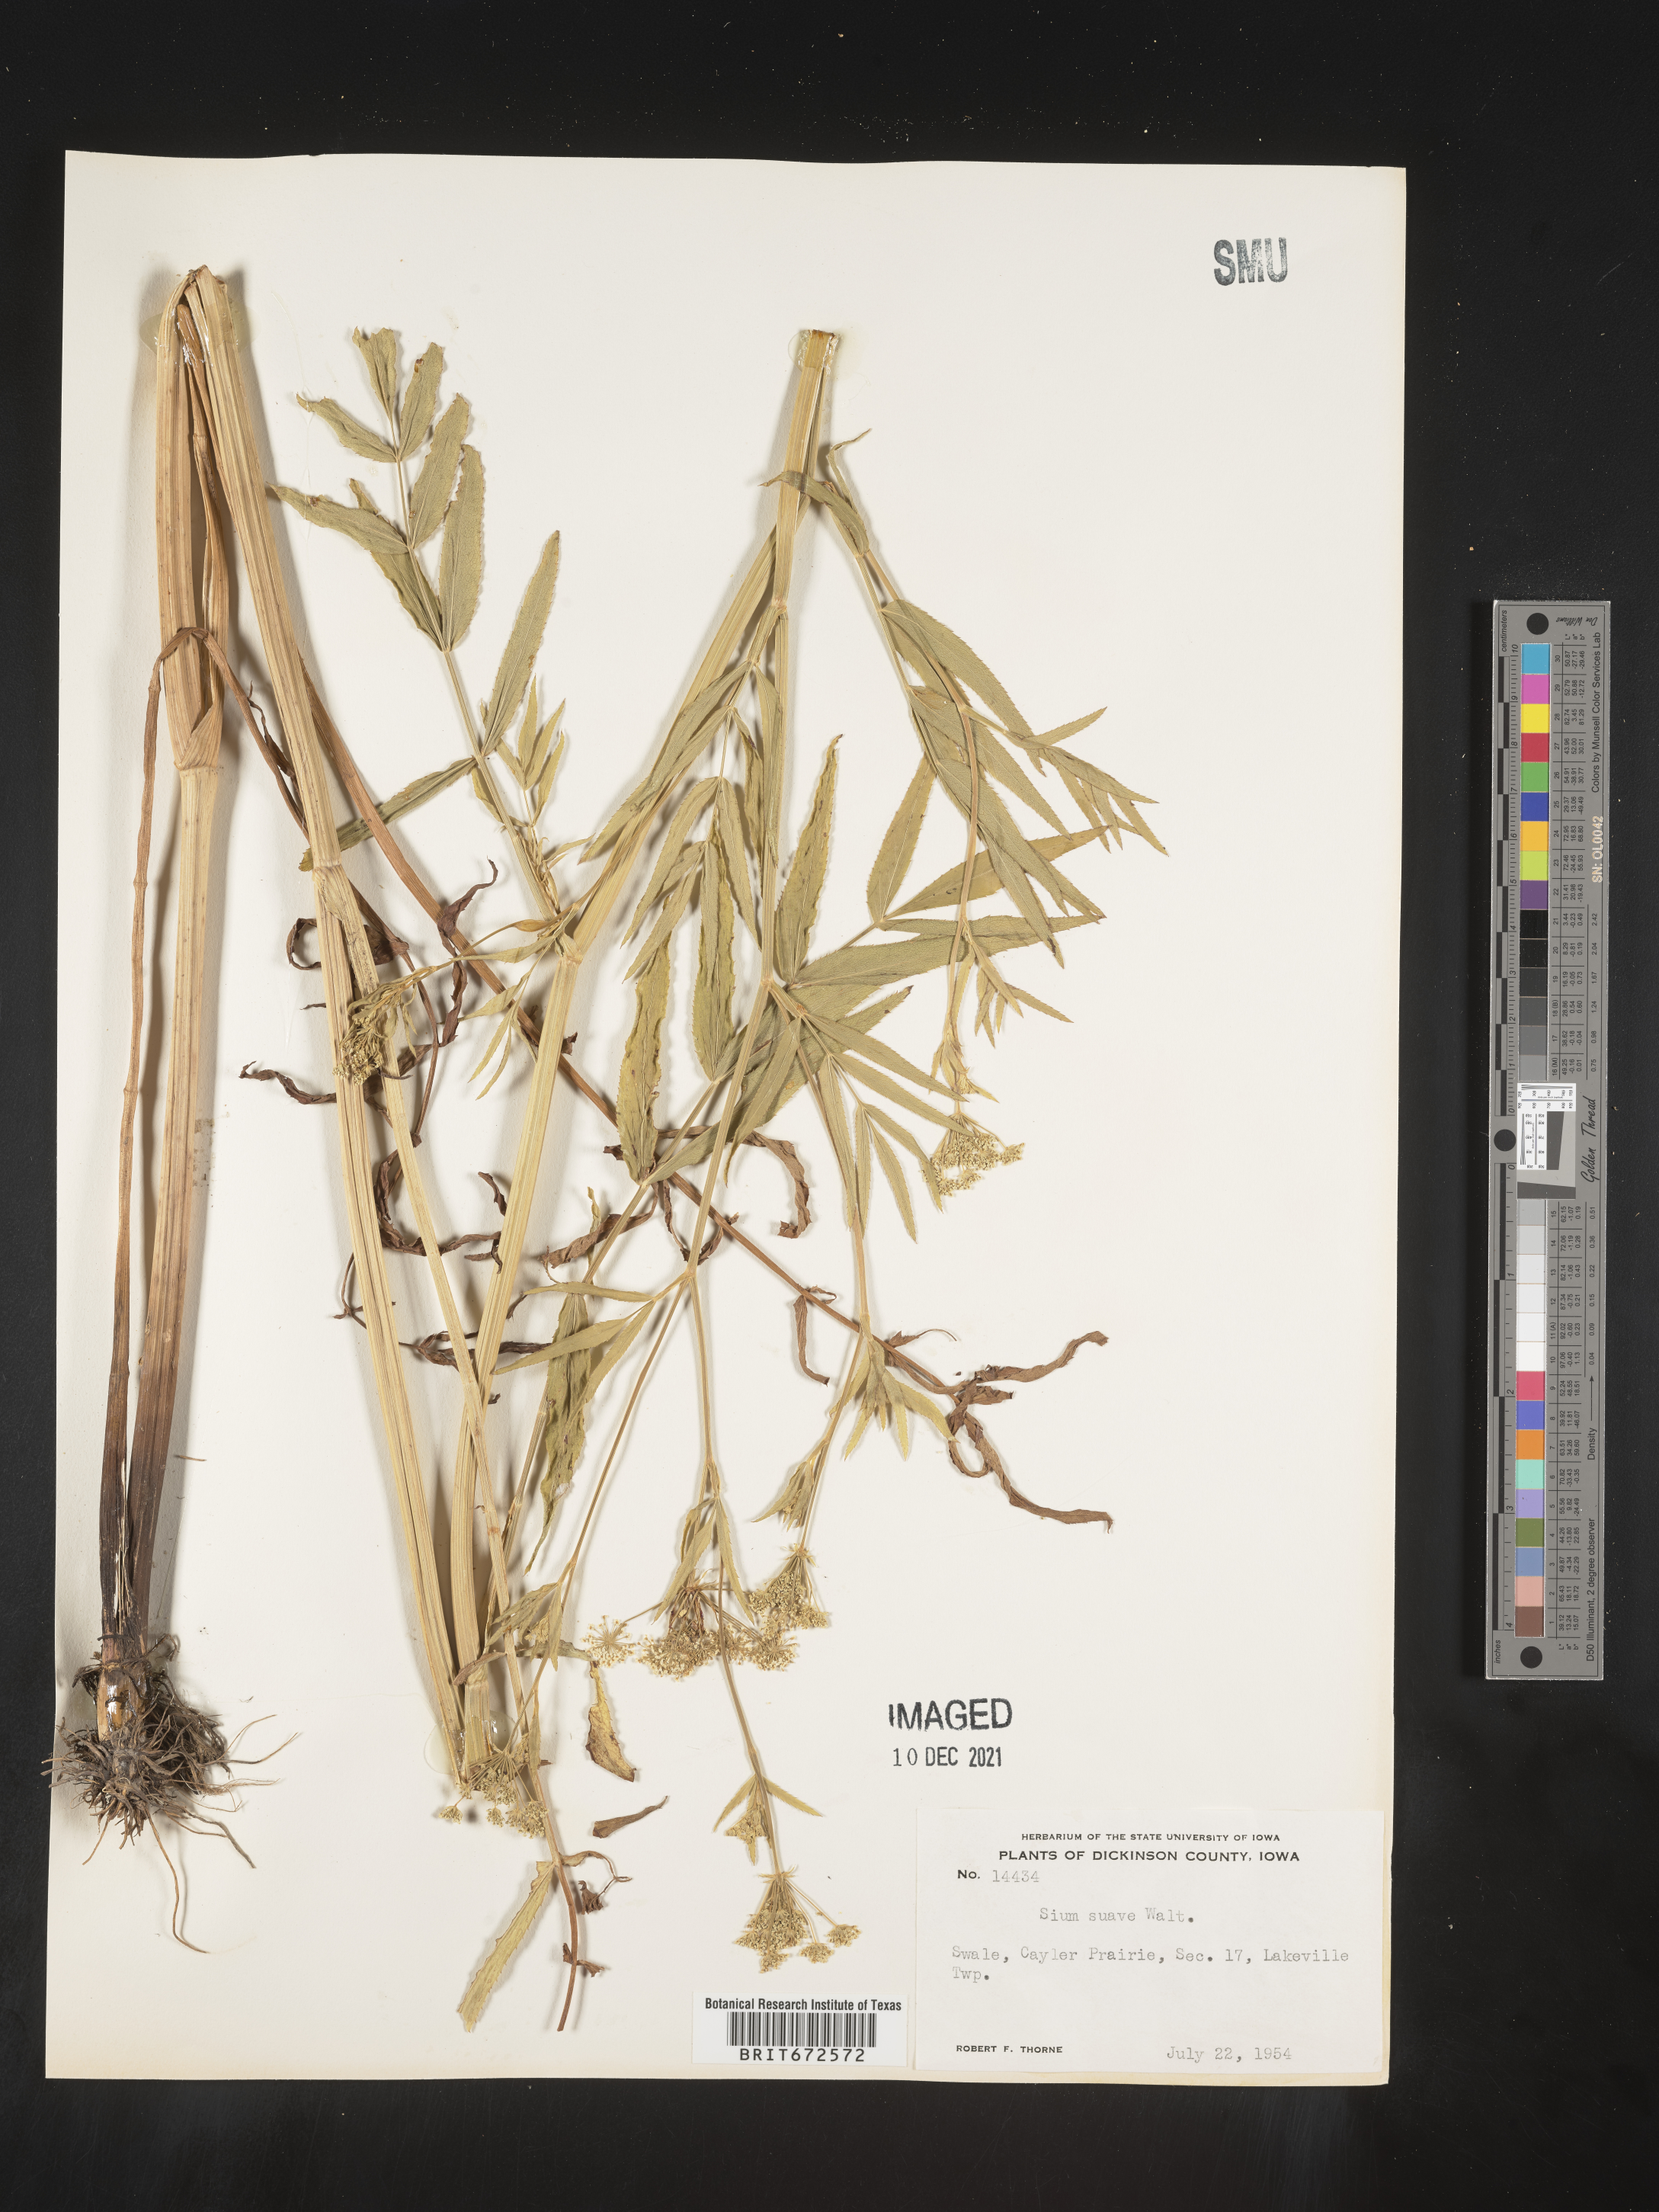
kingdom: Plantae
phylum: Tracheophyta
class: Magnoliopsida
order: Apiales
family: Apiaceae
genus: Sium
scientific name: Sium suave
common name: Hemlock water-parsnip
